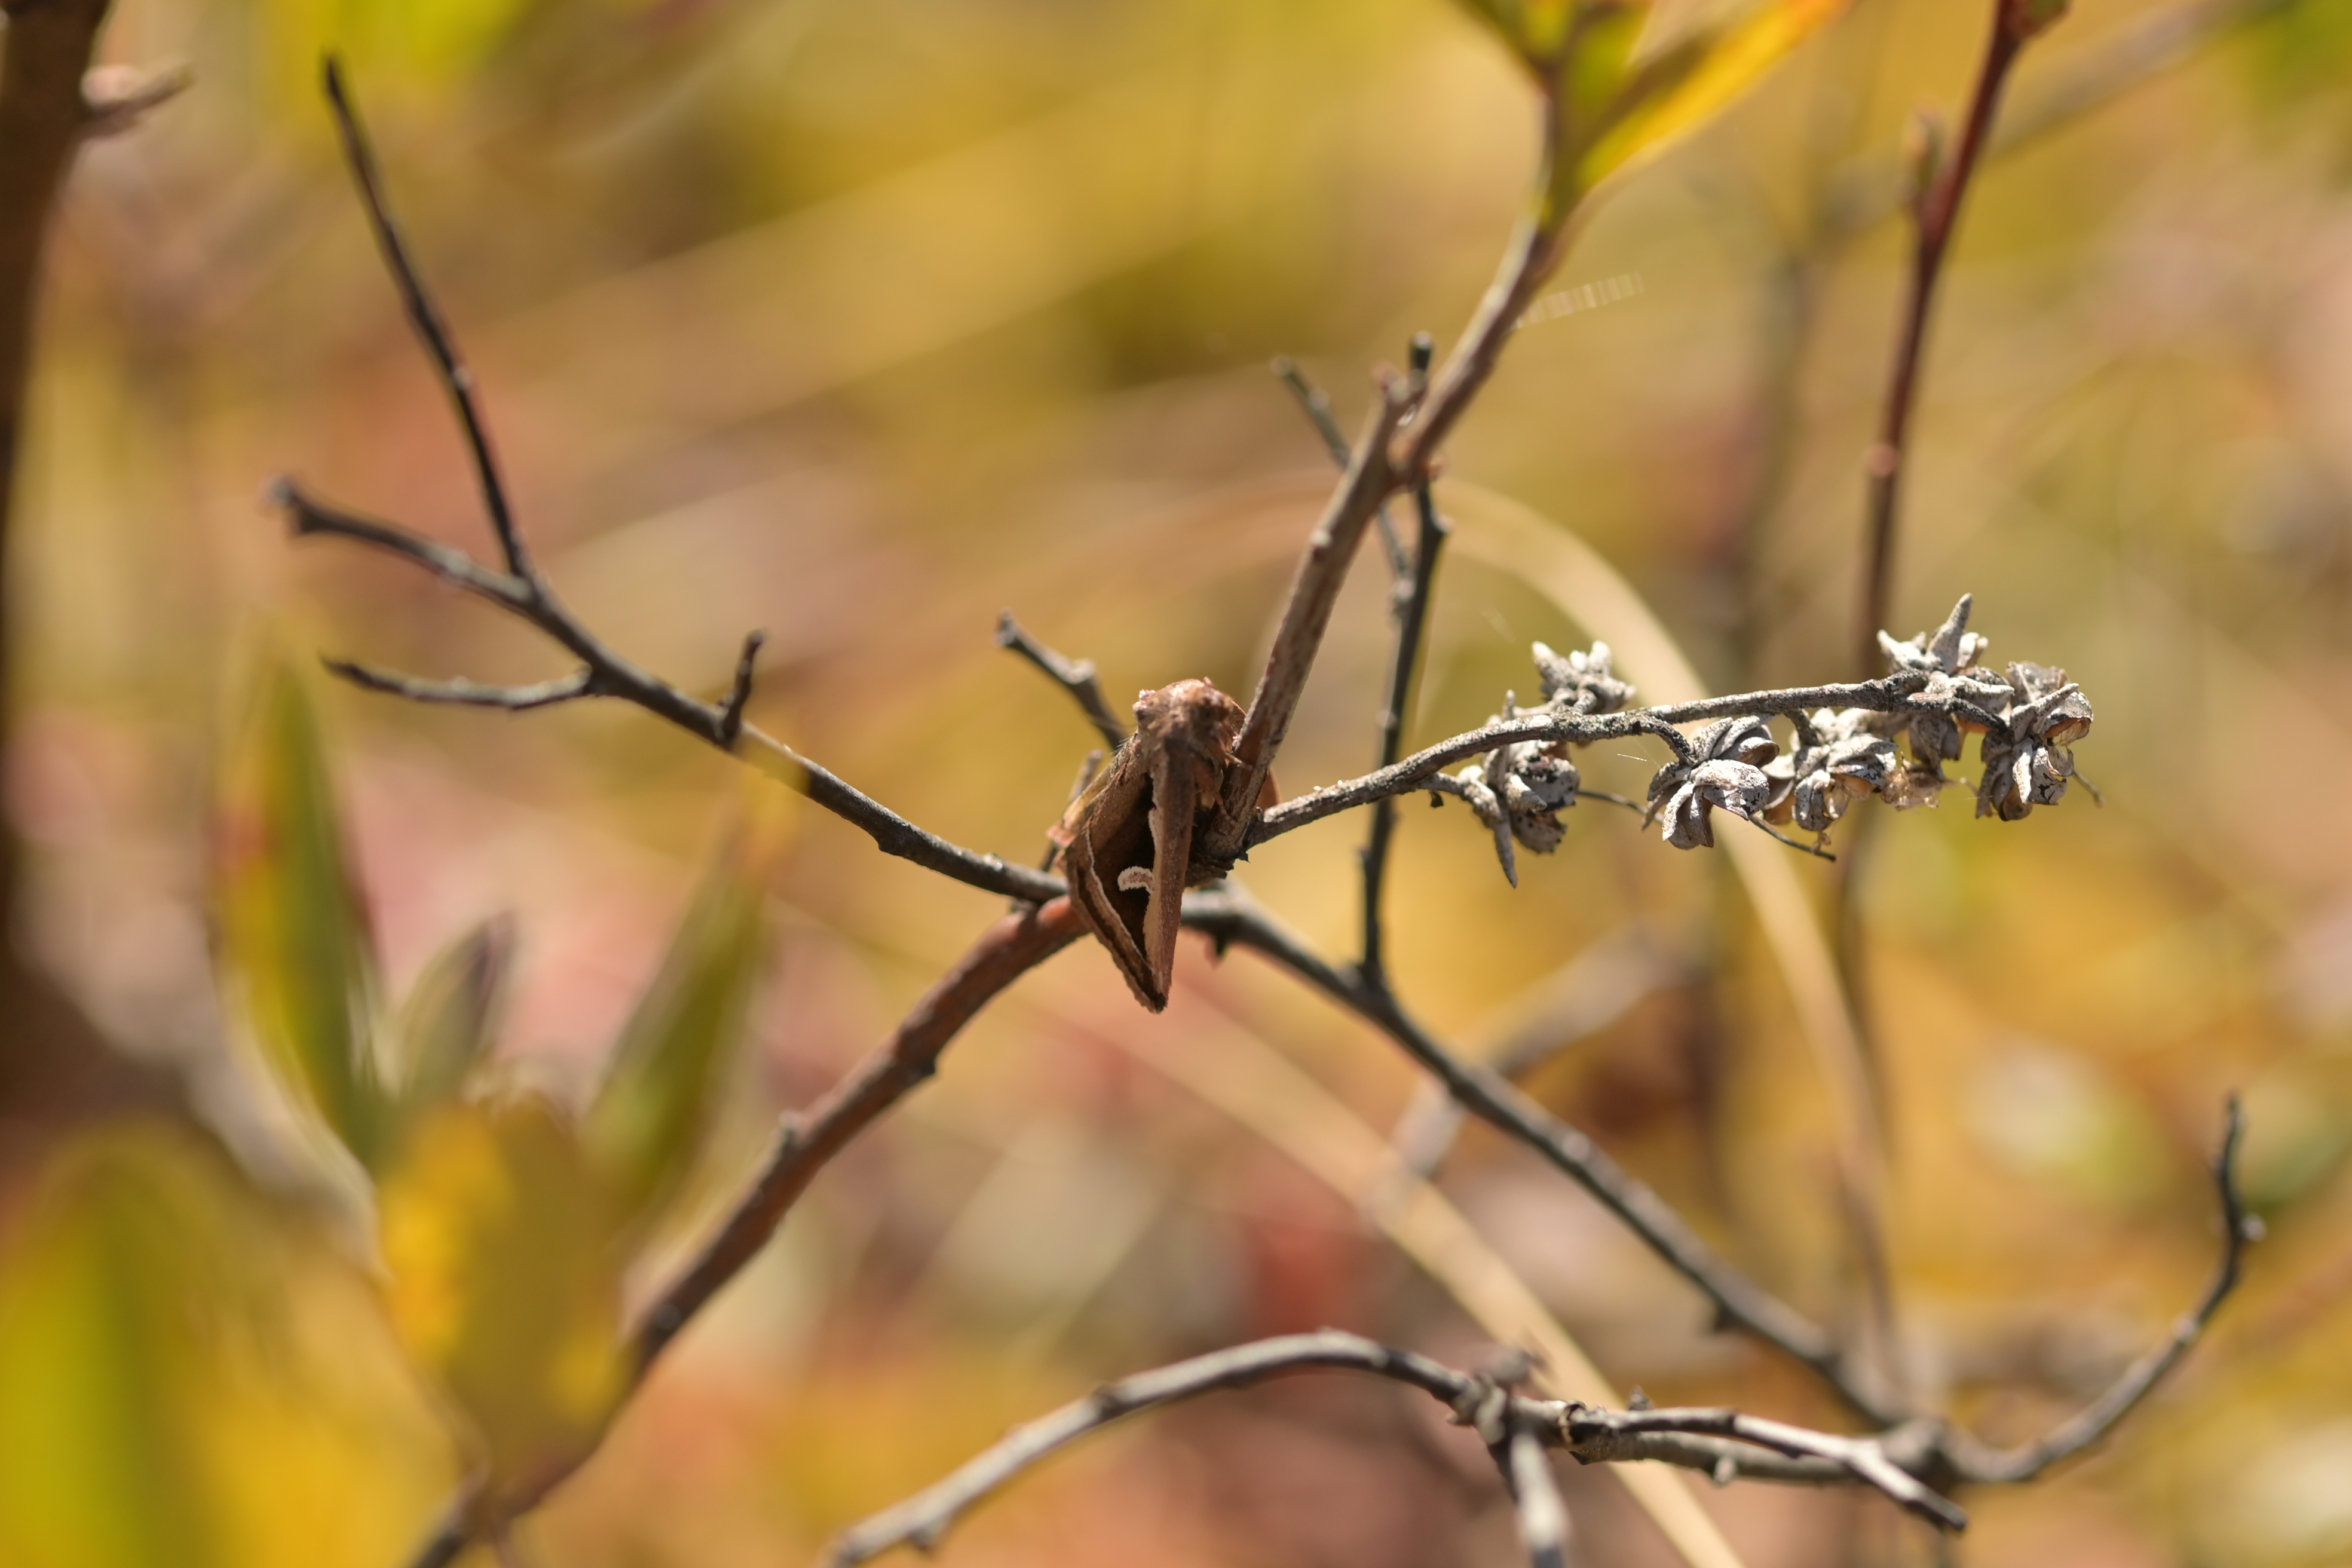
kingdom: Animalia
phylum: Arthropoda
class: Insecta
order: Lepidoptera
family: Noctuidae
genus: Deltote
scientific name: Deltote uncula
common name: Silver hook
